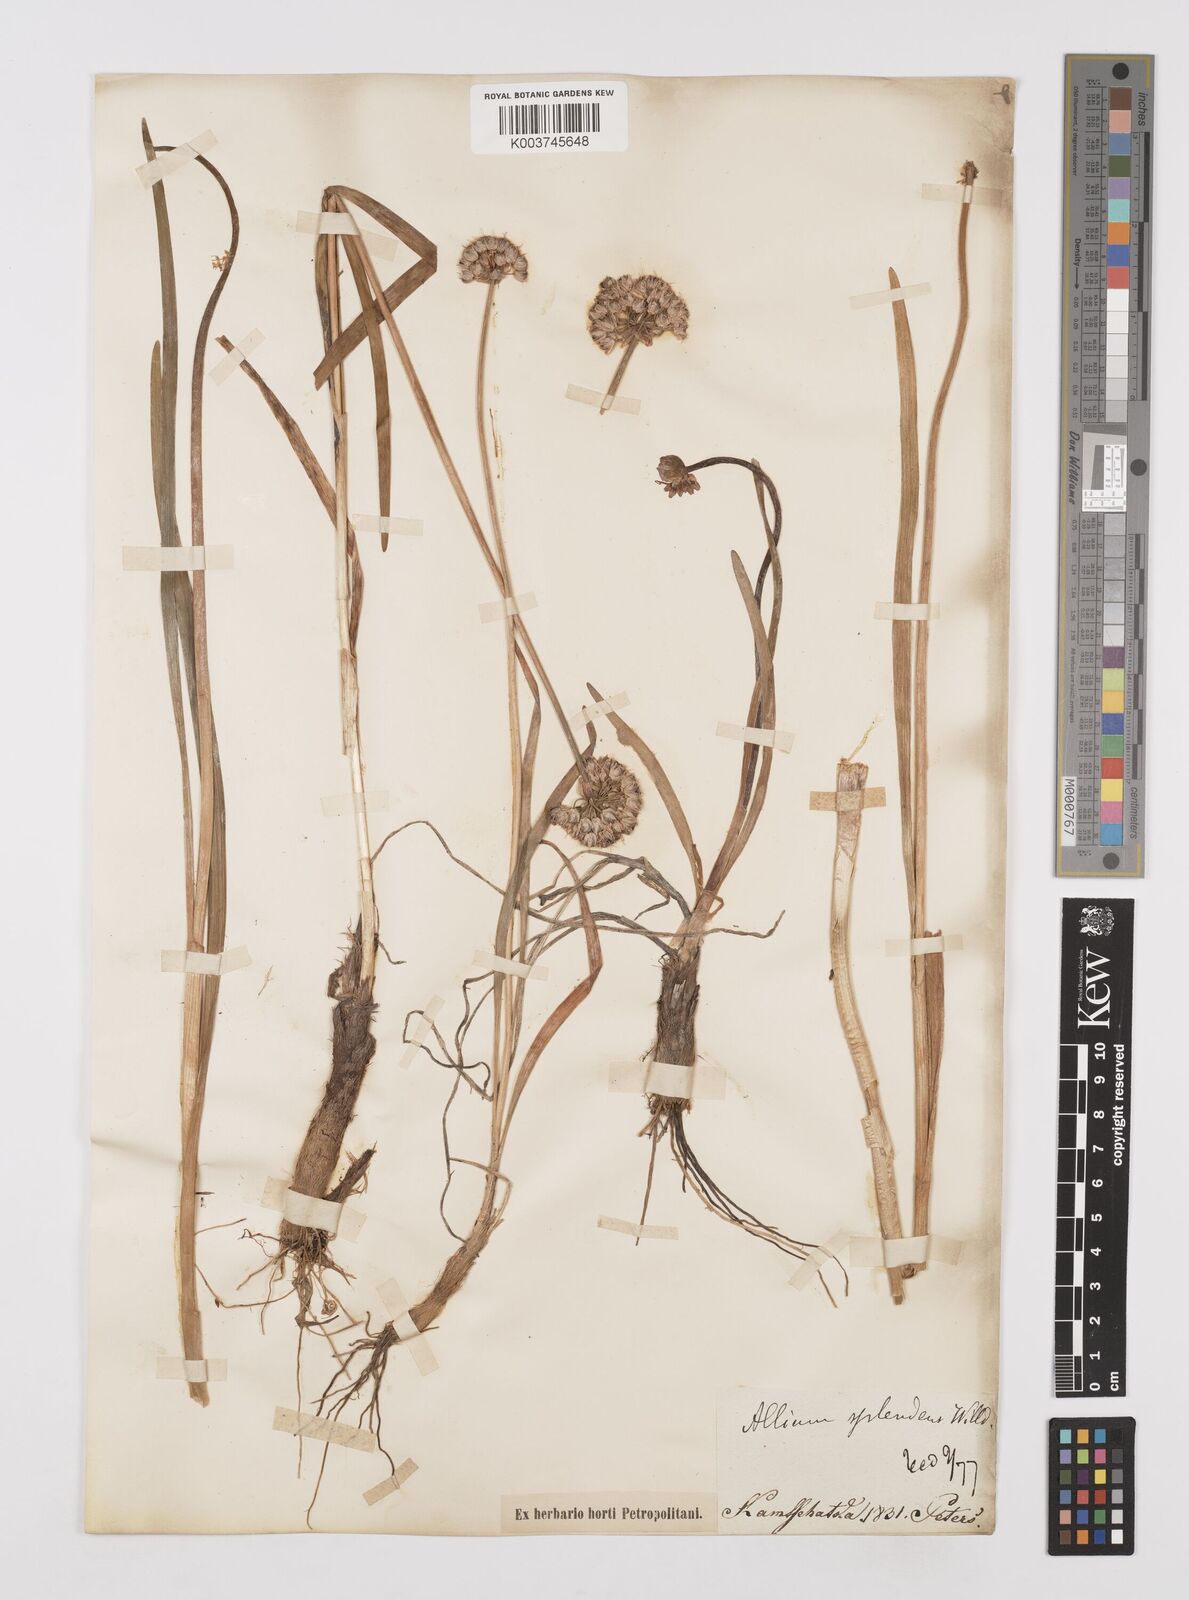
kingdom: Plantae
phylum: Tracheophyta
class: Liliopsida
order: Asparagales
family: Amaryllidaceae
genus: Allium
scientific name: Allium chinense
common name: Japanese scallion
